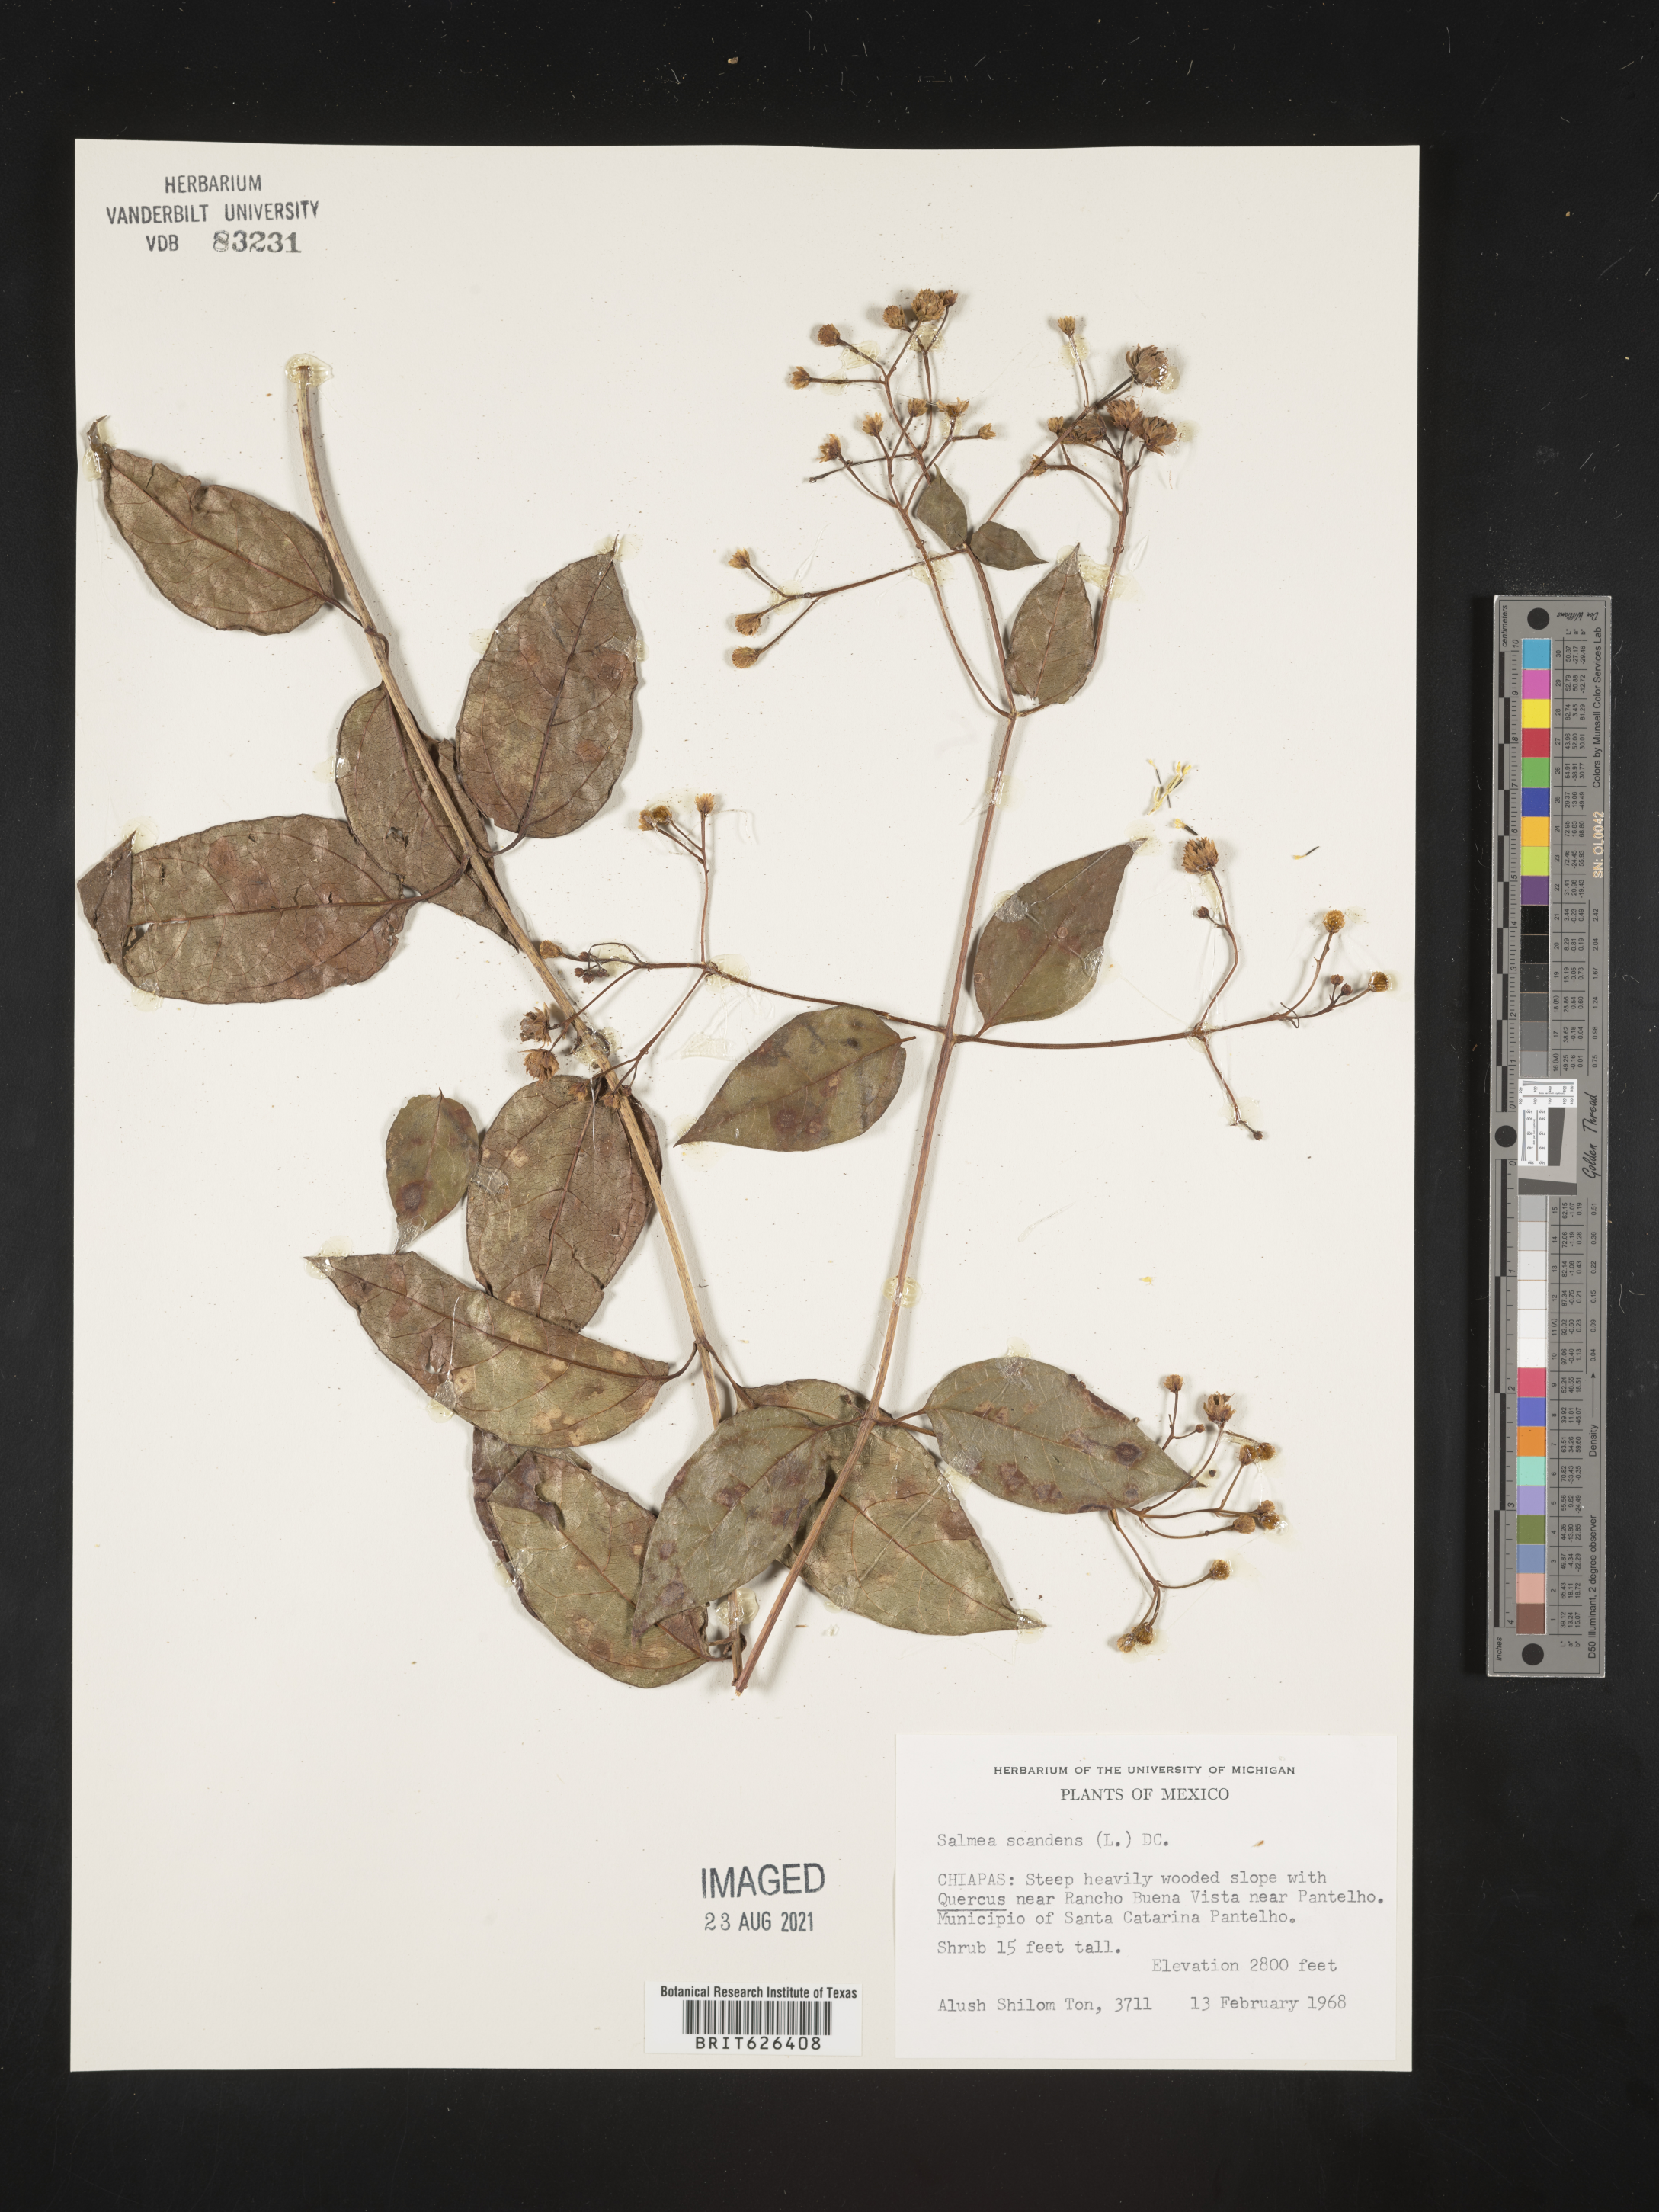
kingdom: Plantae
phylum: Tracheophyta
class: Magnoliopsida
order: Asterales
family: Asteraceae
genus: Salmea
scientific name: Salmea
